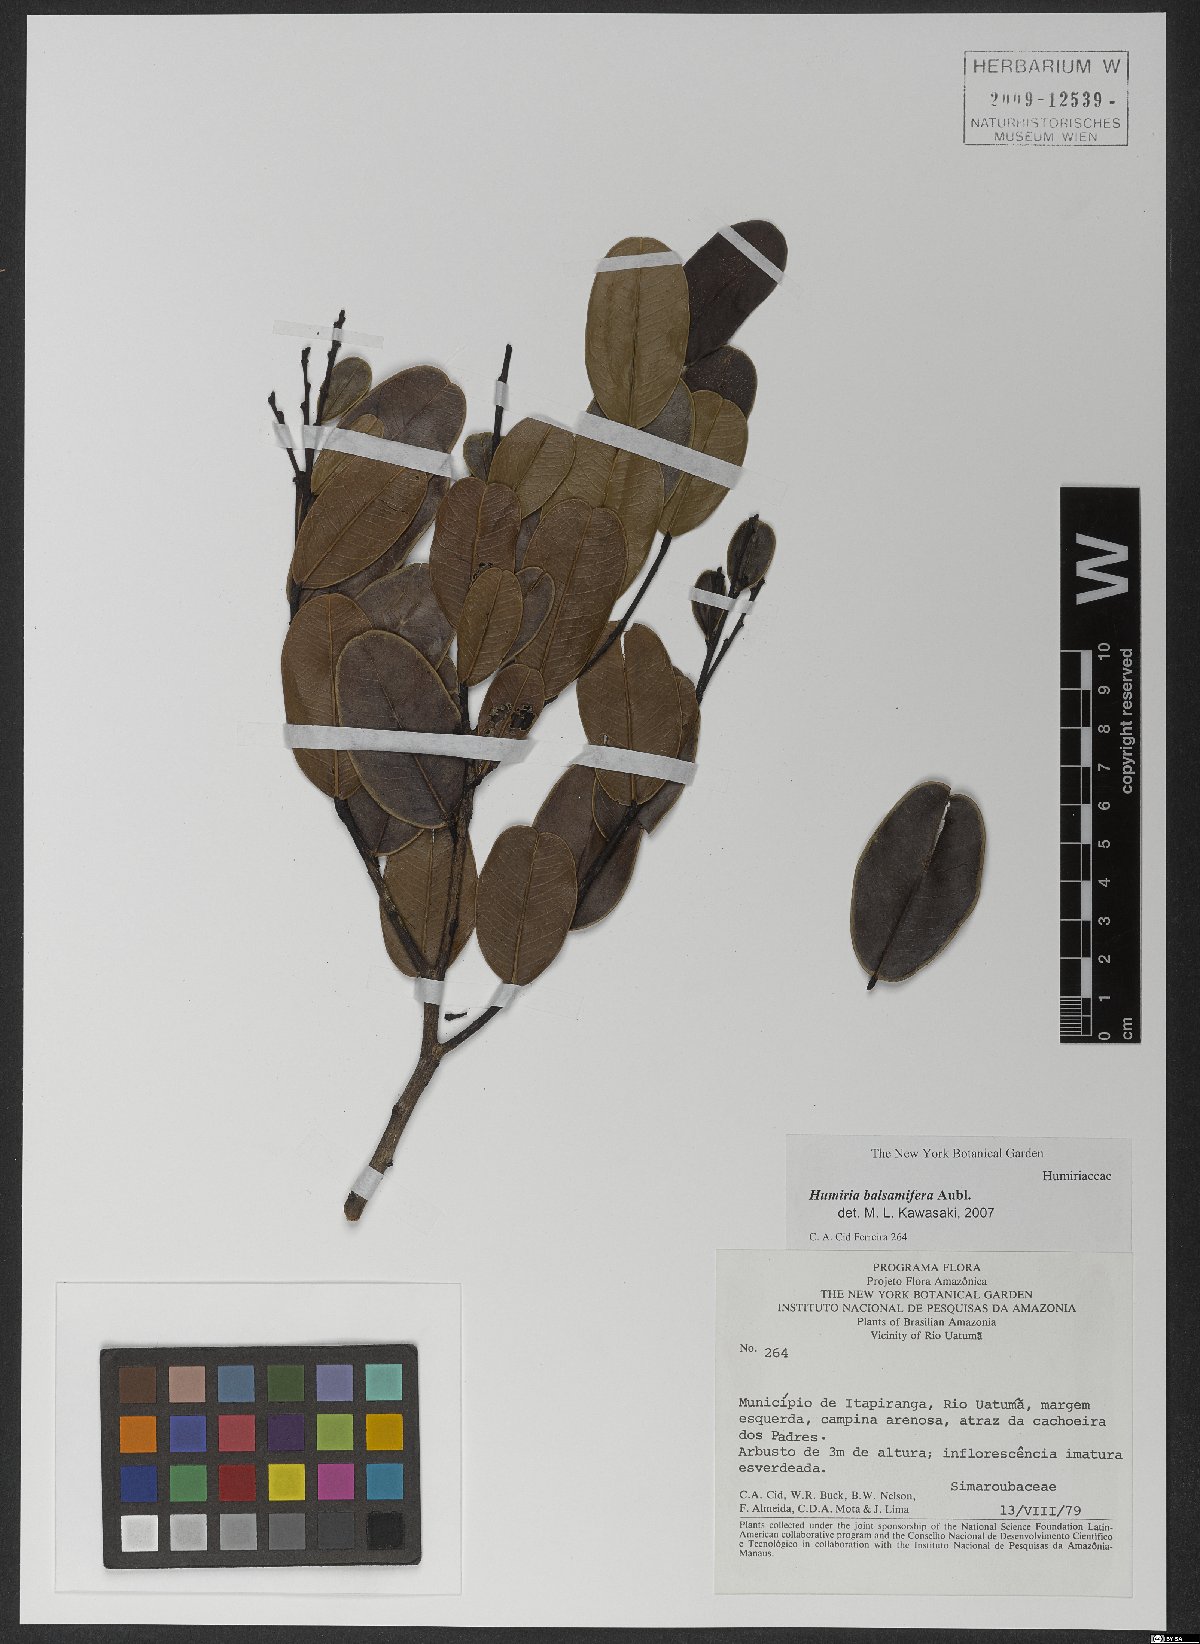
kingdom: Plantae
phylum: Tracheophyta
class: Magnoliopsida
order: Malpighiales
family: Humiriaceae
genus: Humiria
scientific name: Humiria balsamifera
